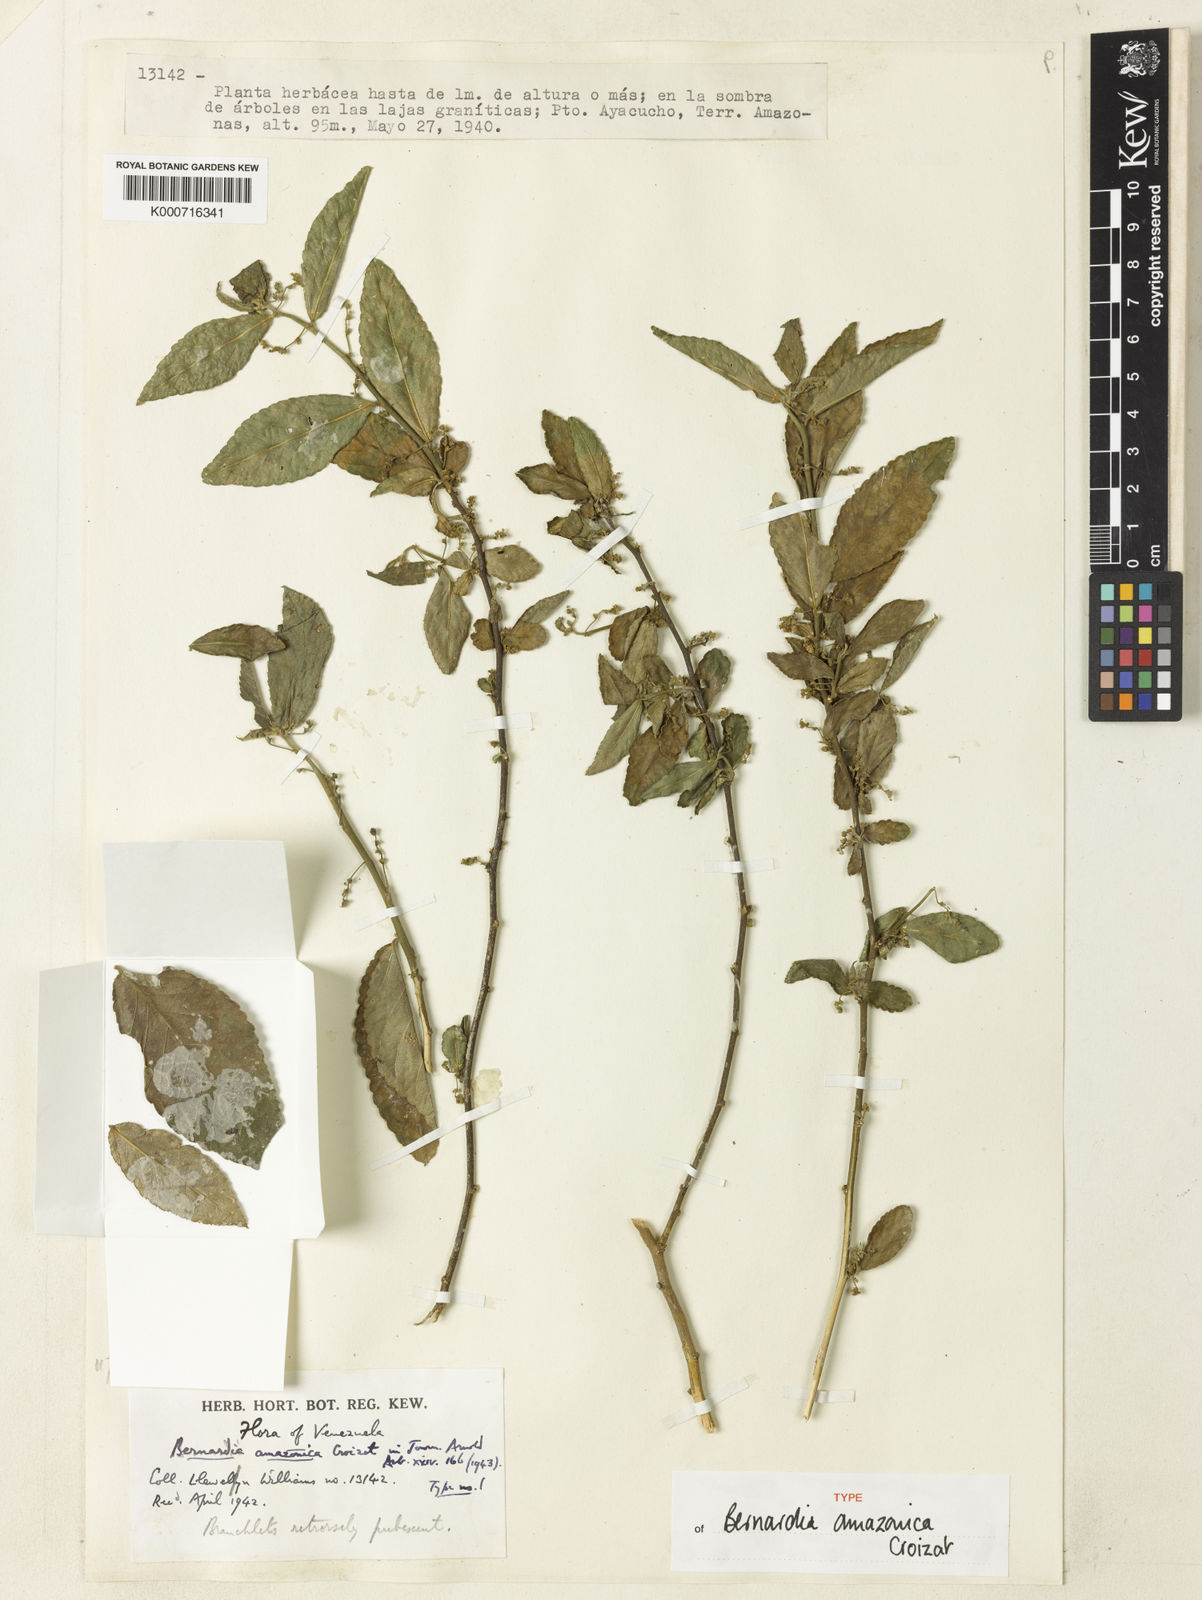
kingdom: Plantae
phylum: Tracheophyta
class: Magnoliopsida
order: Malpighiales
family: Euphorbiaceae
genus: Bernardia
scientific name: Bernardia amazonica
